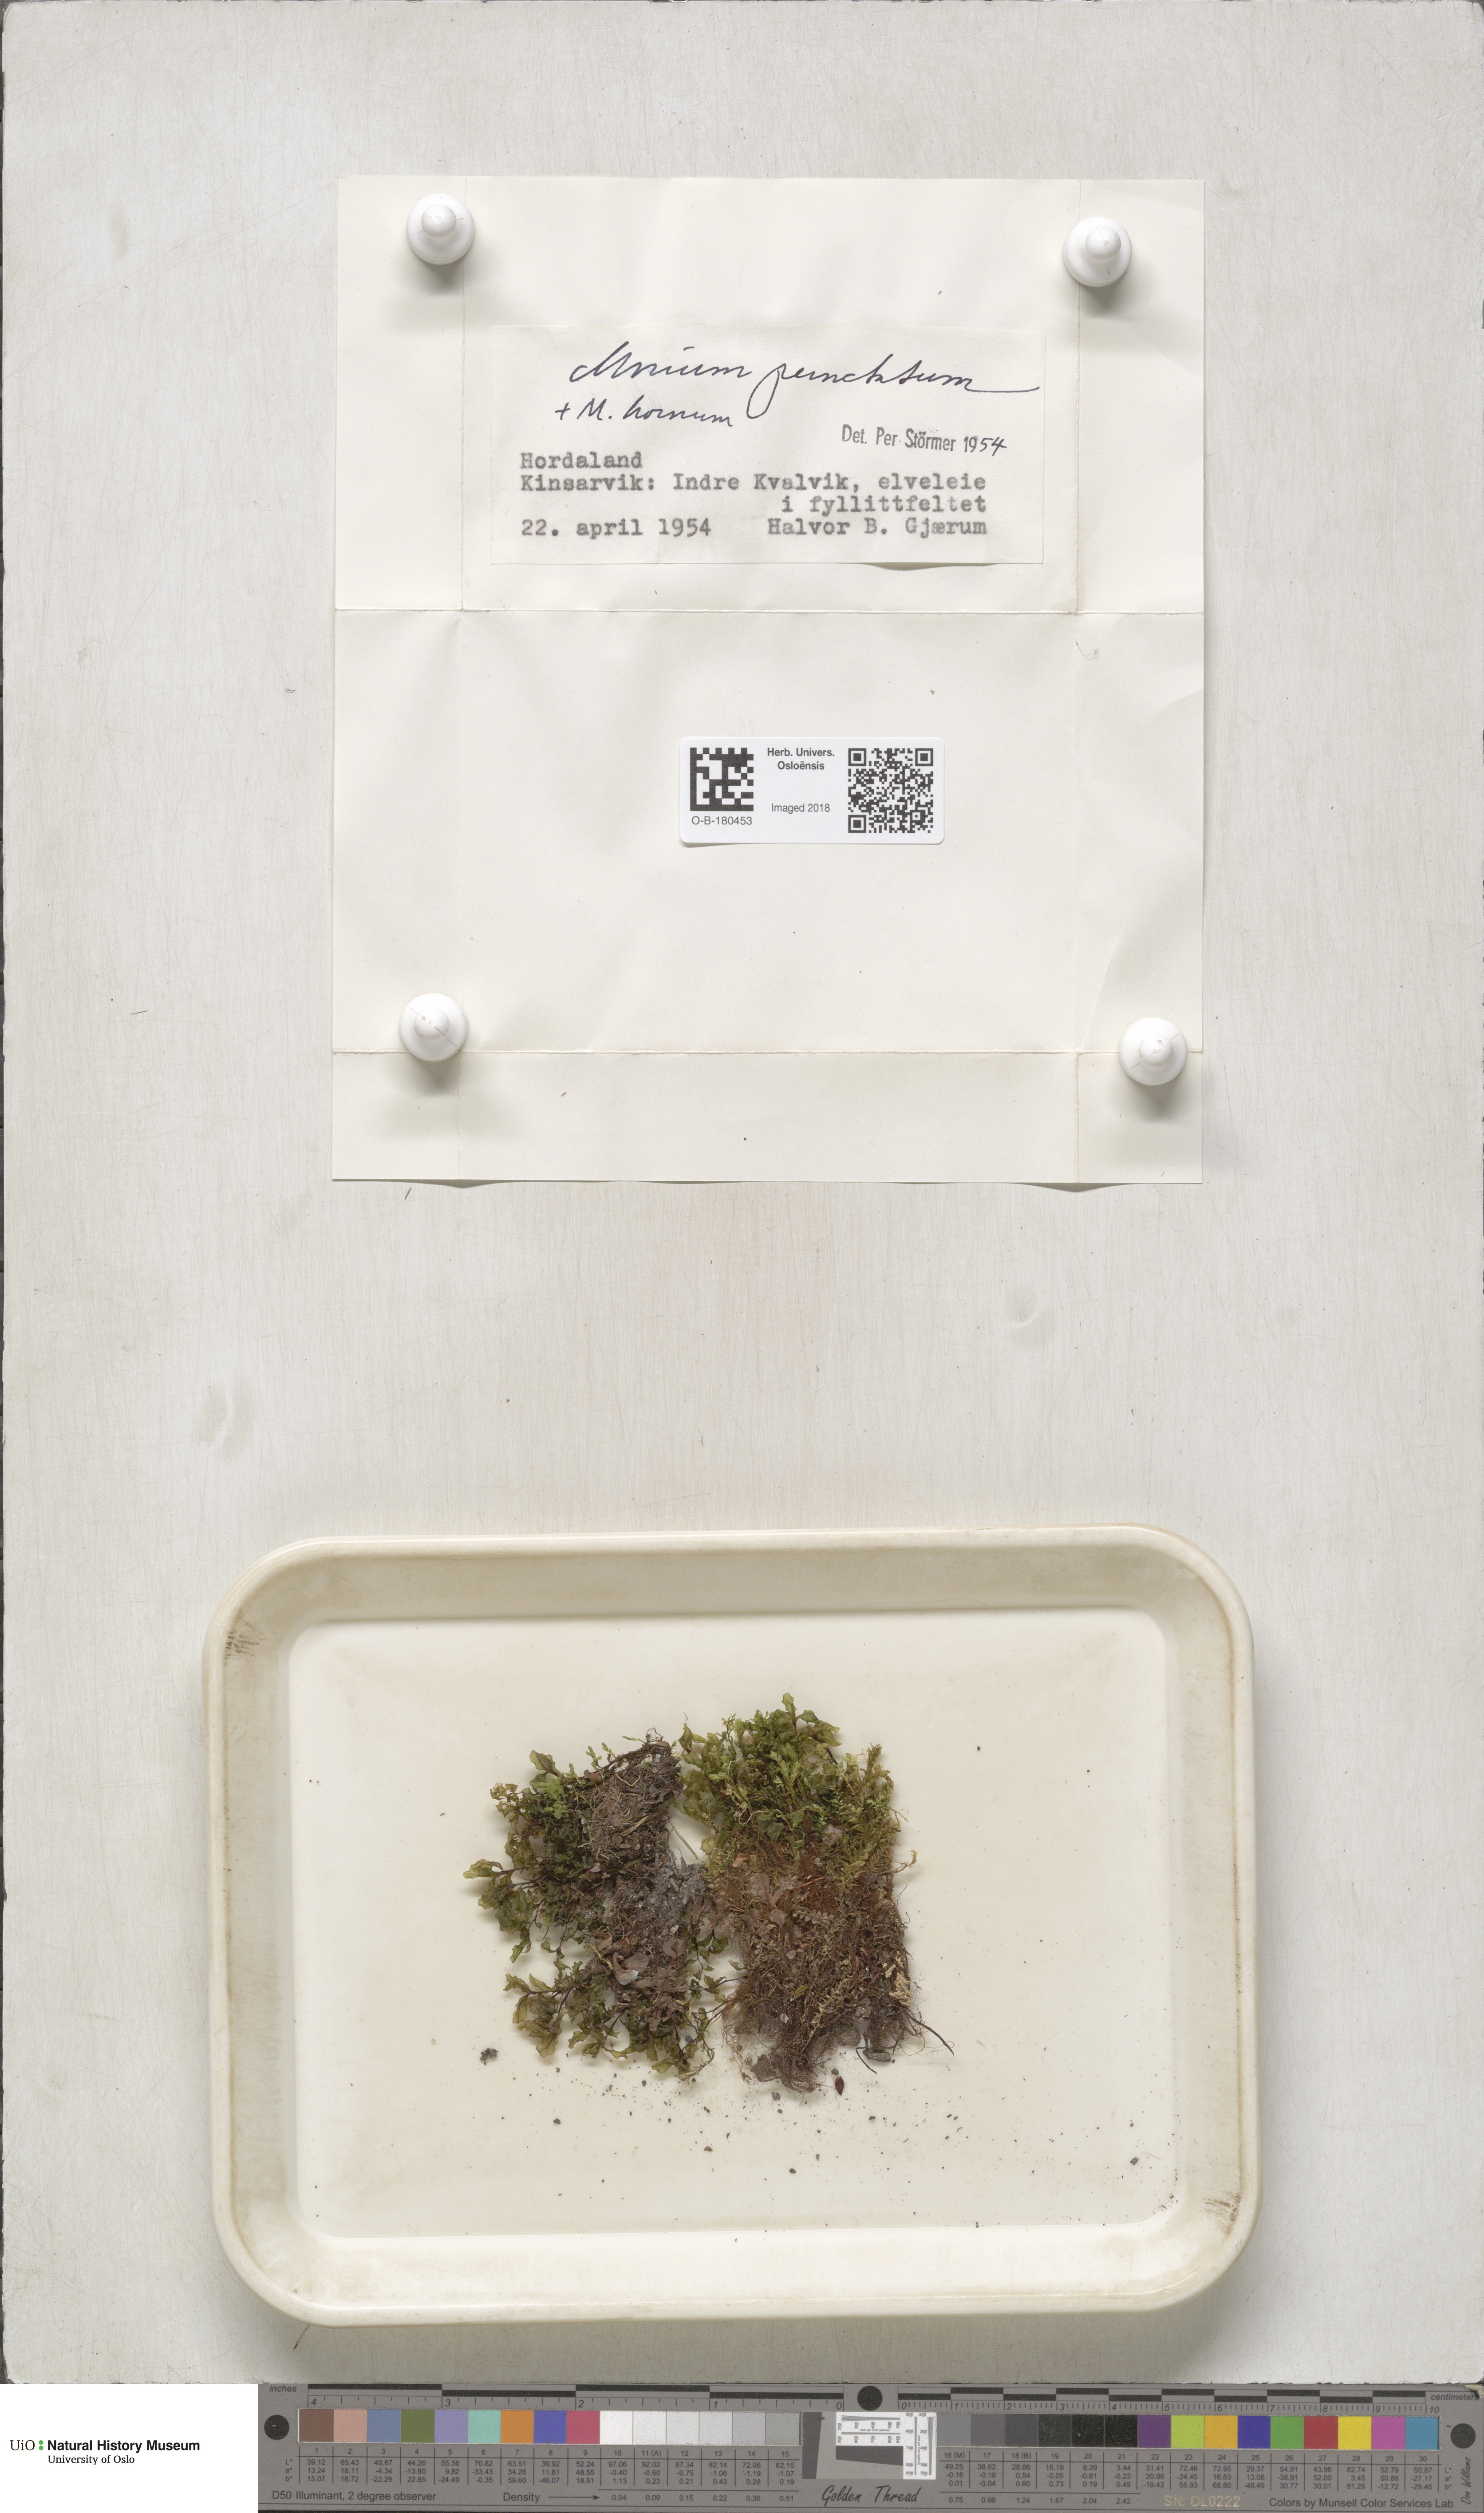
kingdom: Plantae
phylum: Bryophyta
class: Bryopsida
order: Bryales
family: Mniaceae
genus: Rhizomnium
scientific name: Rhizomnium punctatum
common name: Dotted leafy moss
